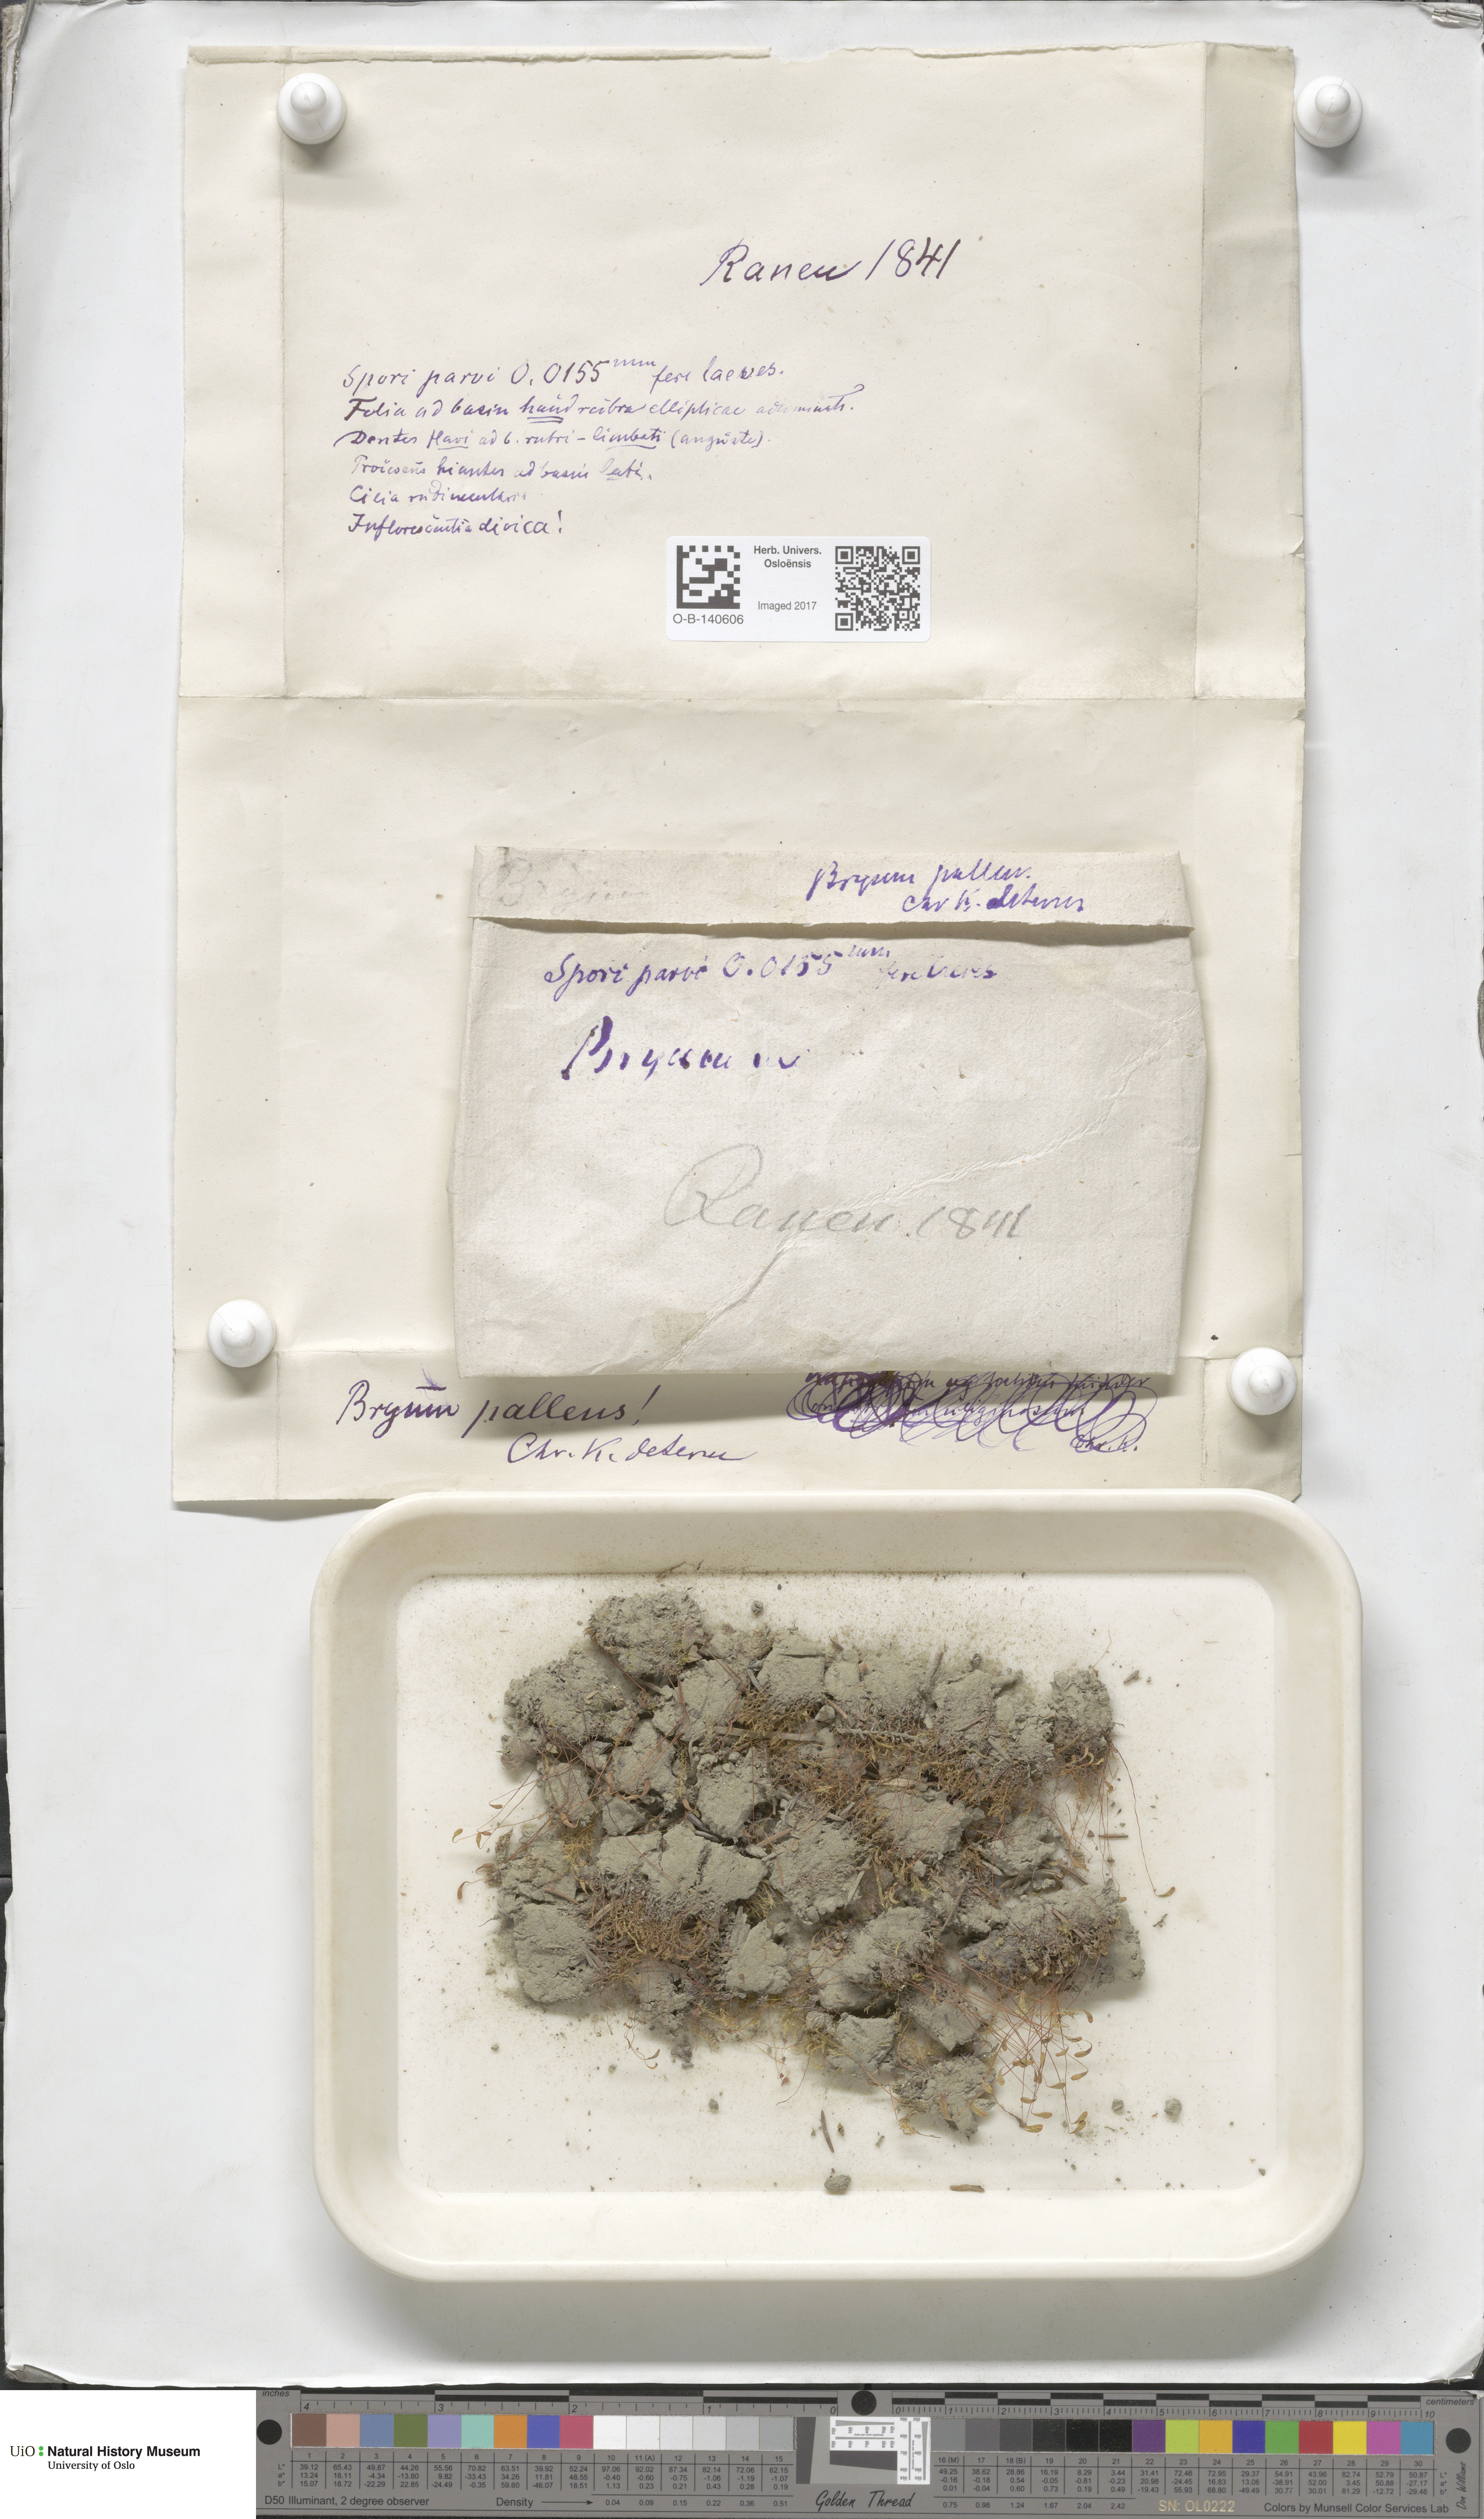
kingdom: Plantae
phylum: Bryophyta
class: Bryopsida
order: Bryales
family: Bryaceae
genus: Ptychostomum
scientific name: Ptychostomum pallens
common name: Pale thread-moss
